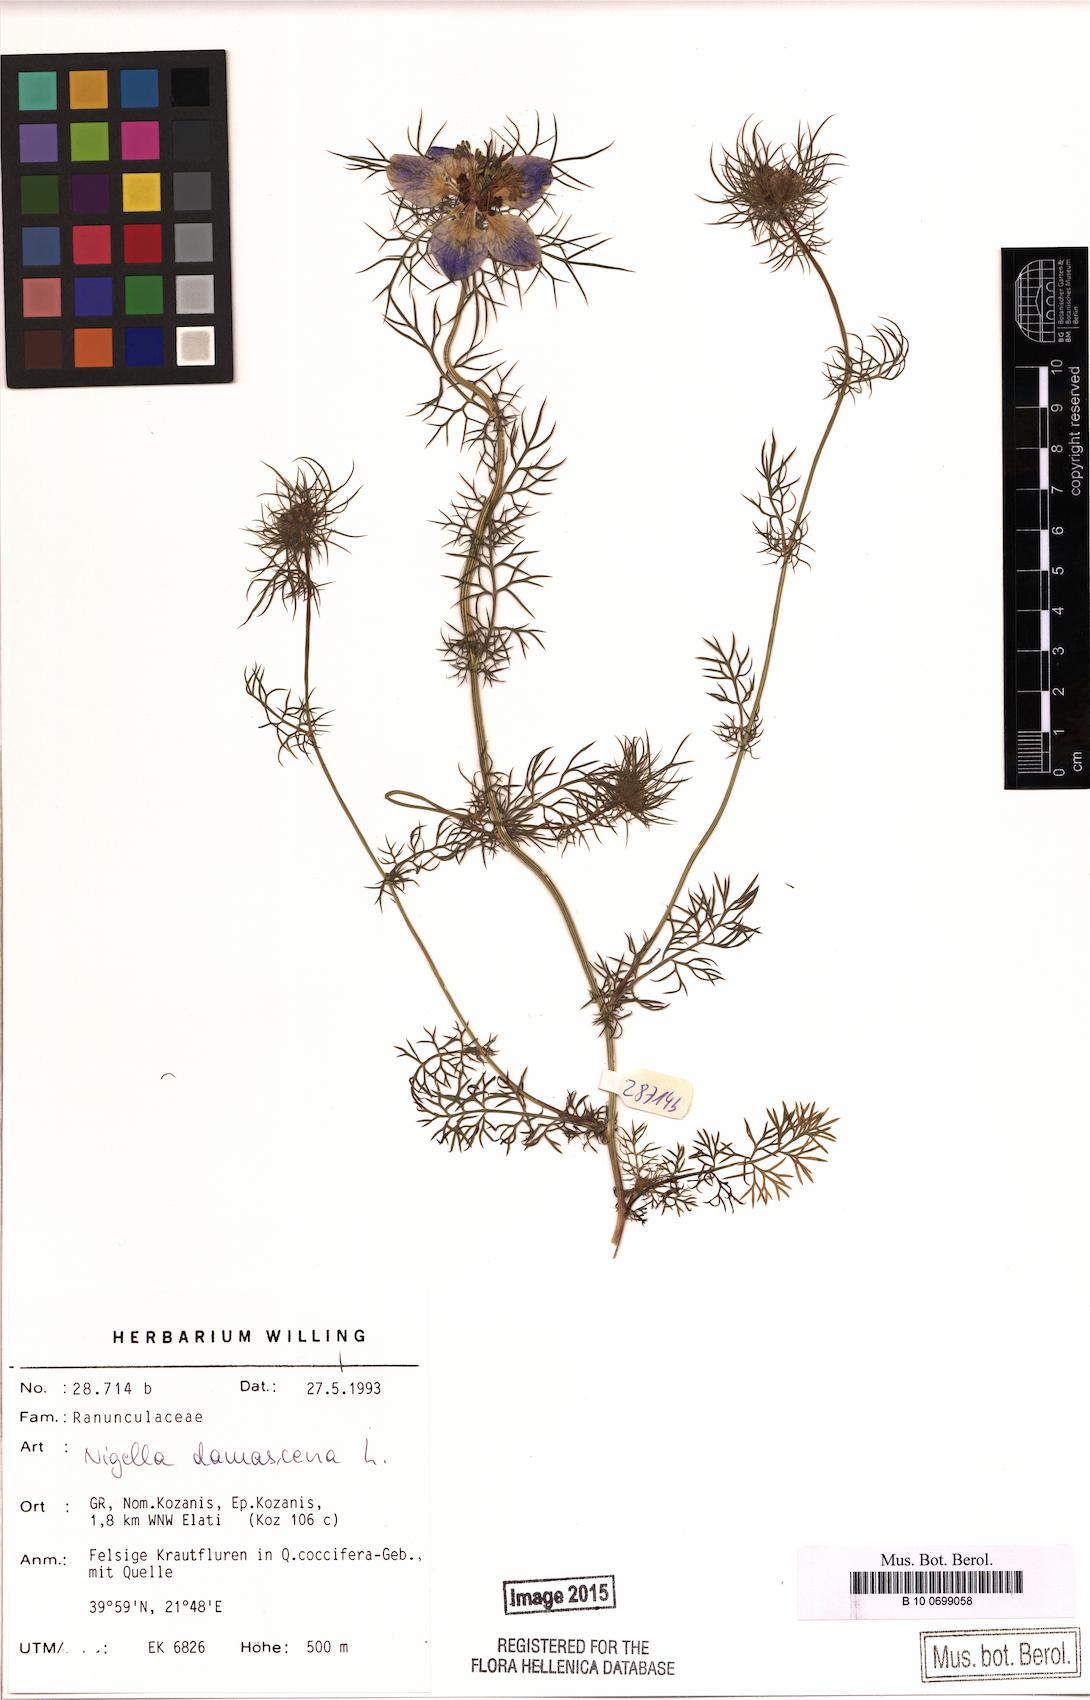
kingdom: Plantae
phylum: Tracheophyta
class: Magnoliopsida
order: Ranunculales
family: Ranunculaceae
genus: Nigella
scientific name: Nigella damascena
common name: Love-in-a-mist
